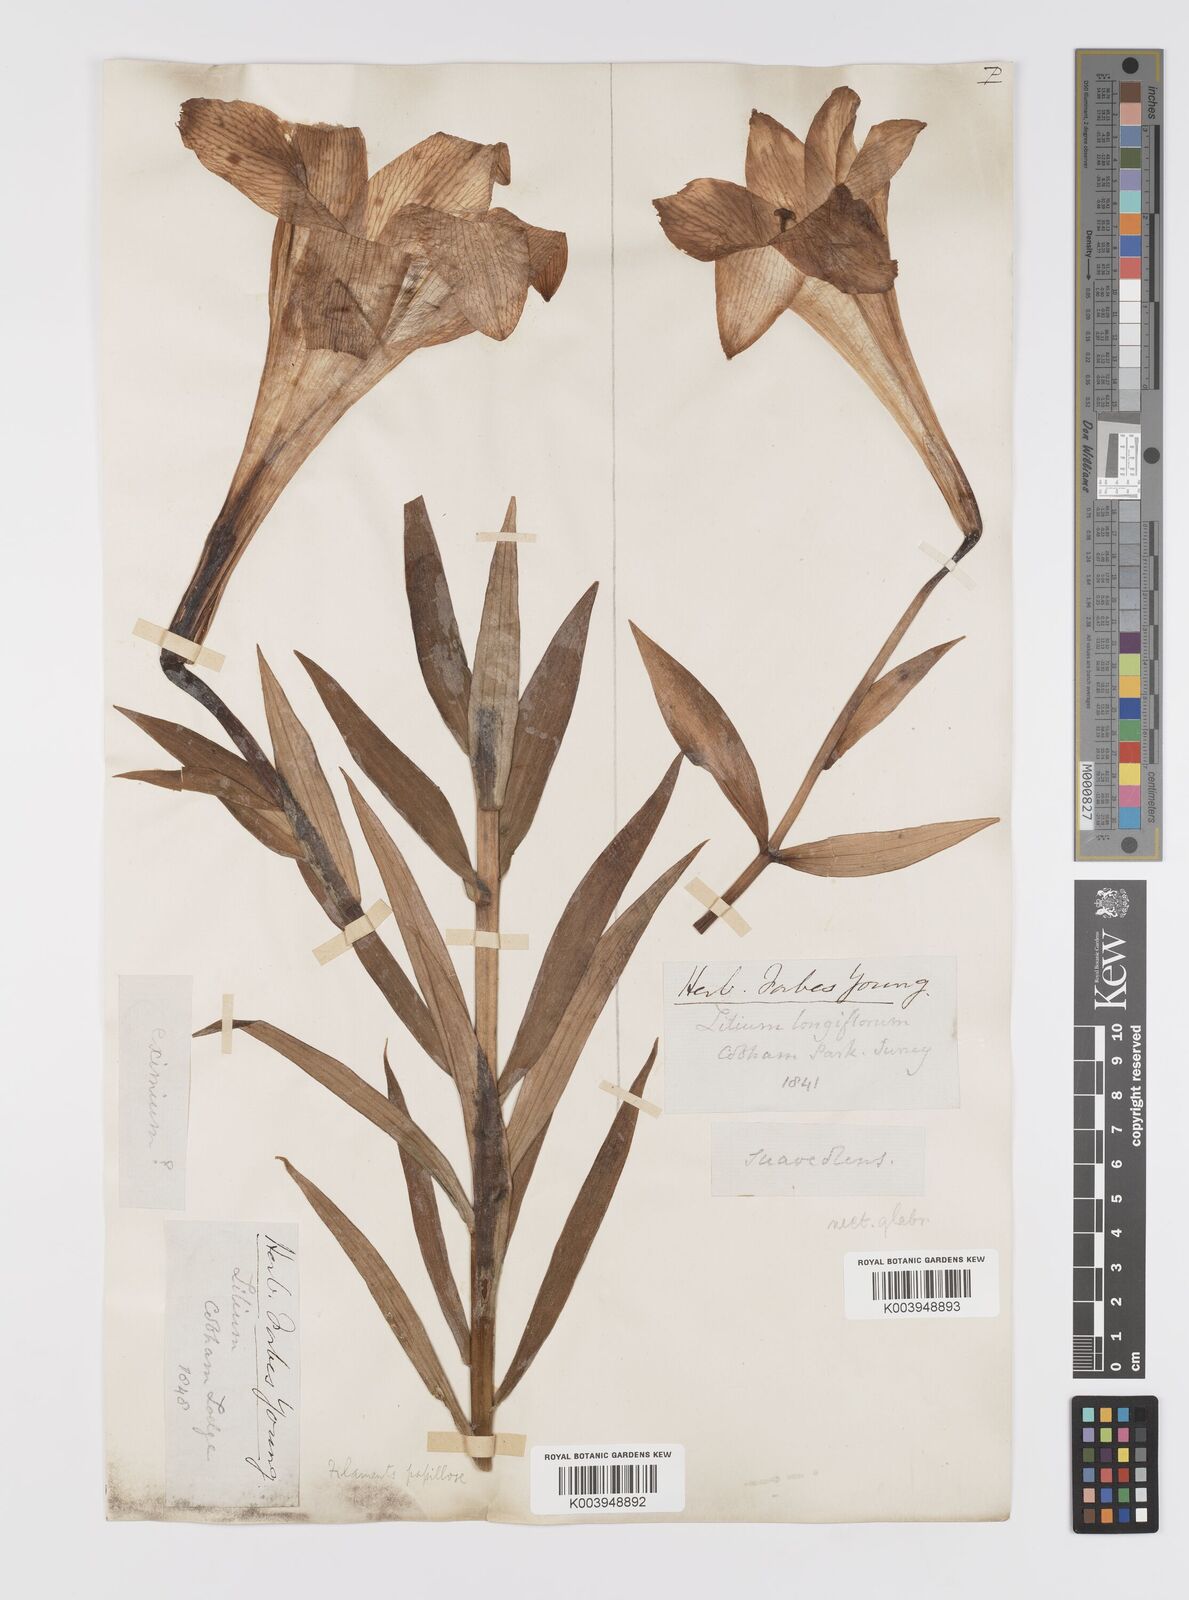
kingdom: Plantae
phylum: Tracheophyta
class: Liliopsida
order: Liliales
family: Liliaceae
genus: Lilium
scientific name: Lilium
